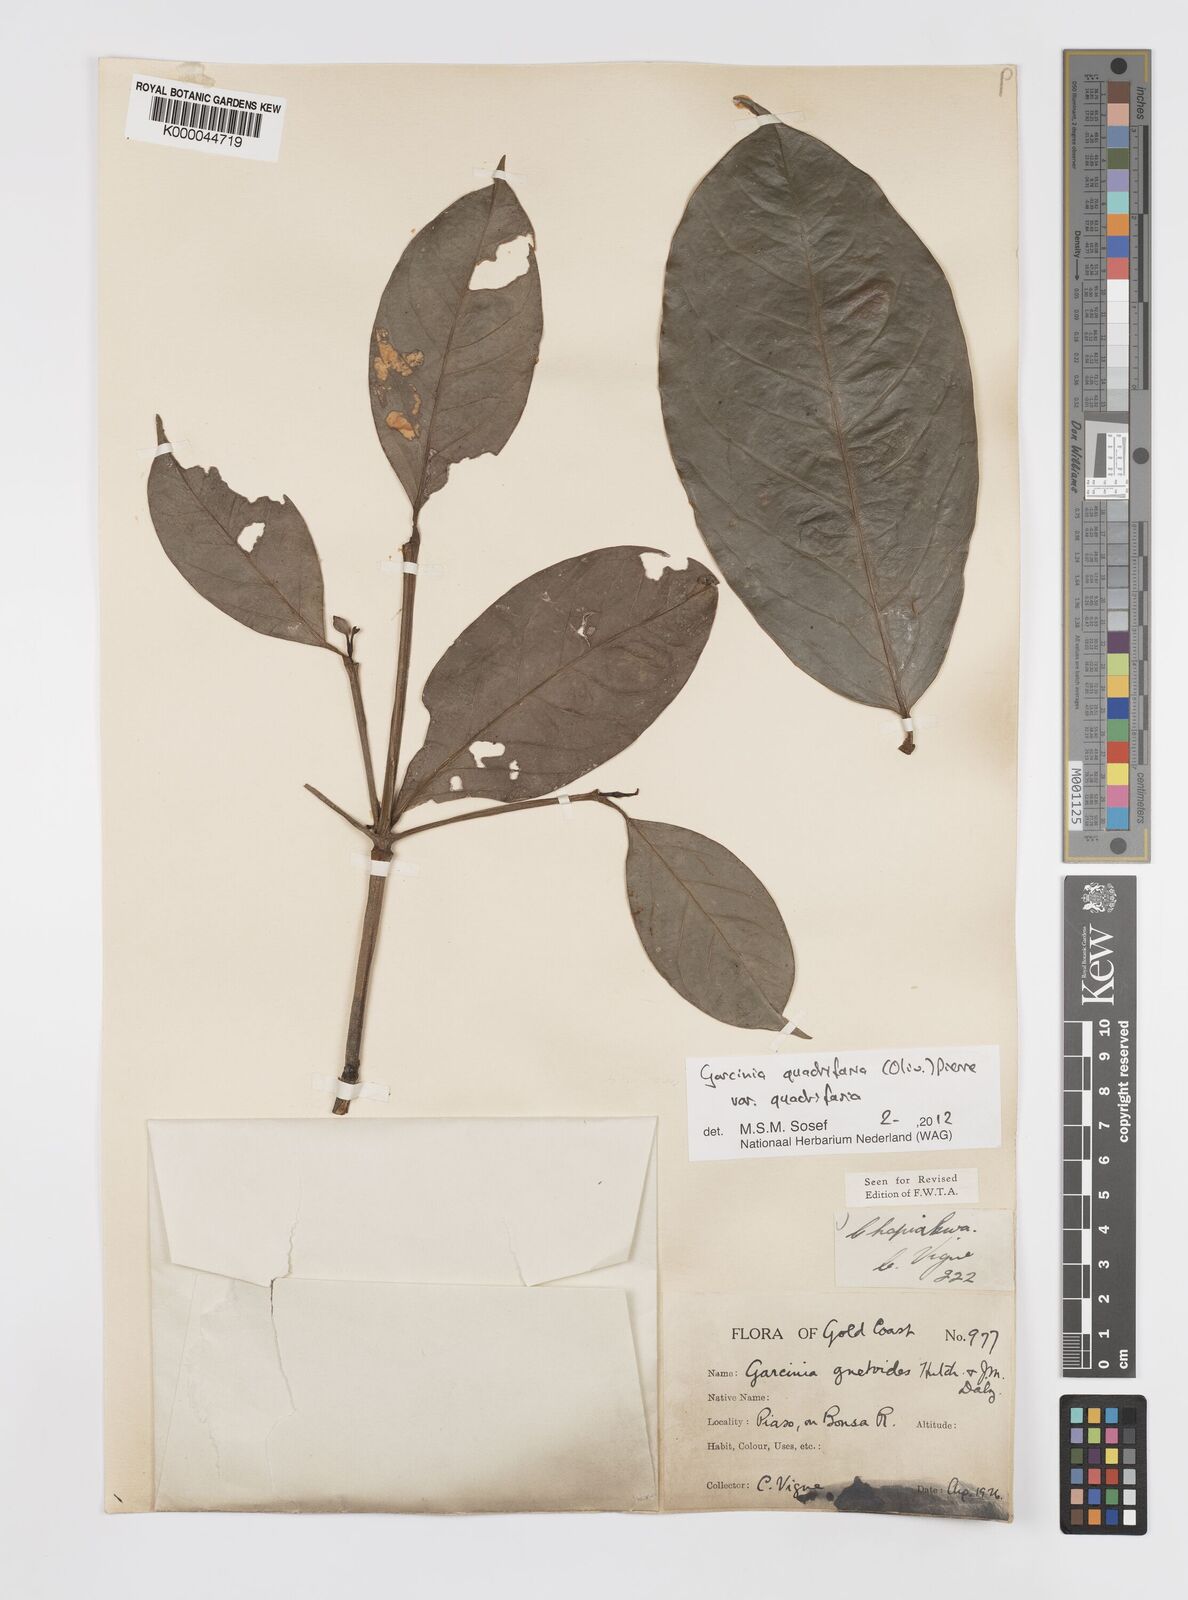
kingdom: Plantae
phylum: Tracheophyta
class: Magnoliopsida
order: Malpighiales
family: Clusiaceae
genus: Garcinia
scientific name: Garcinia gnetoides
